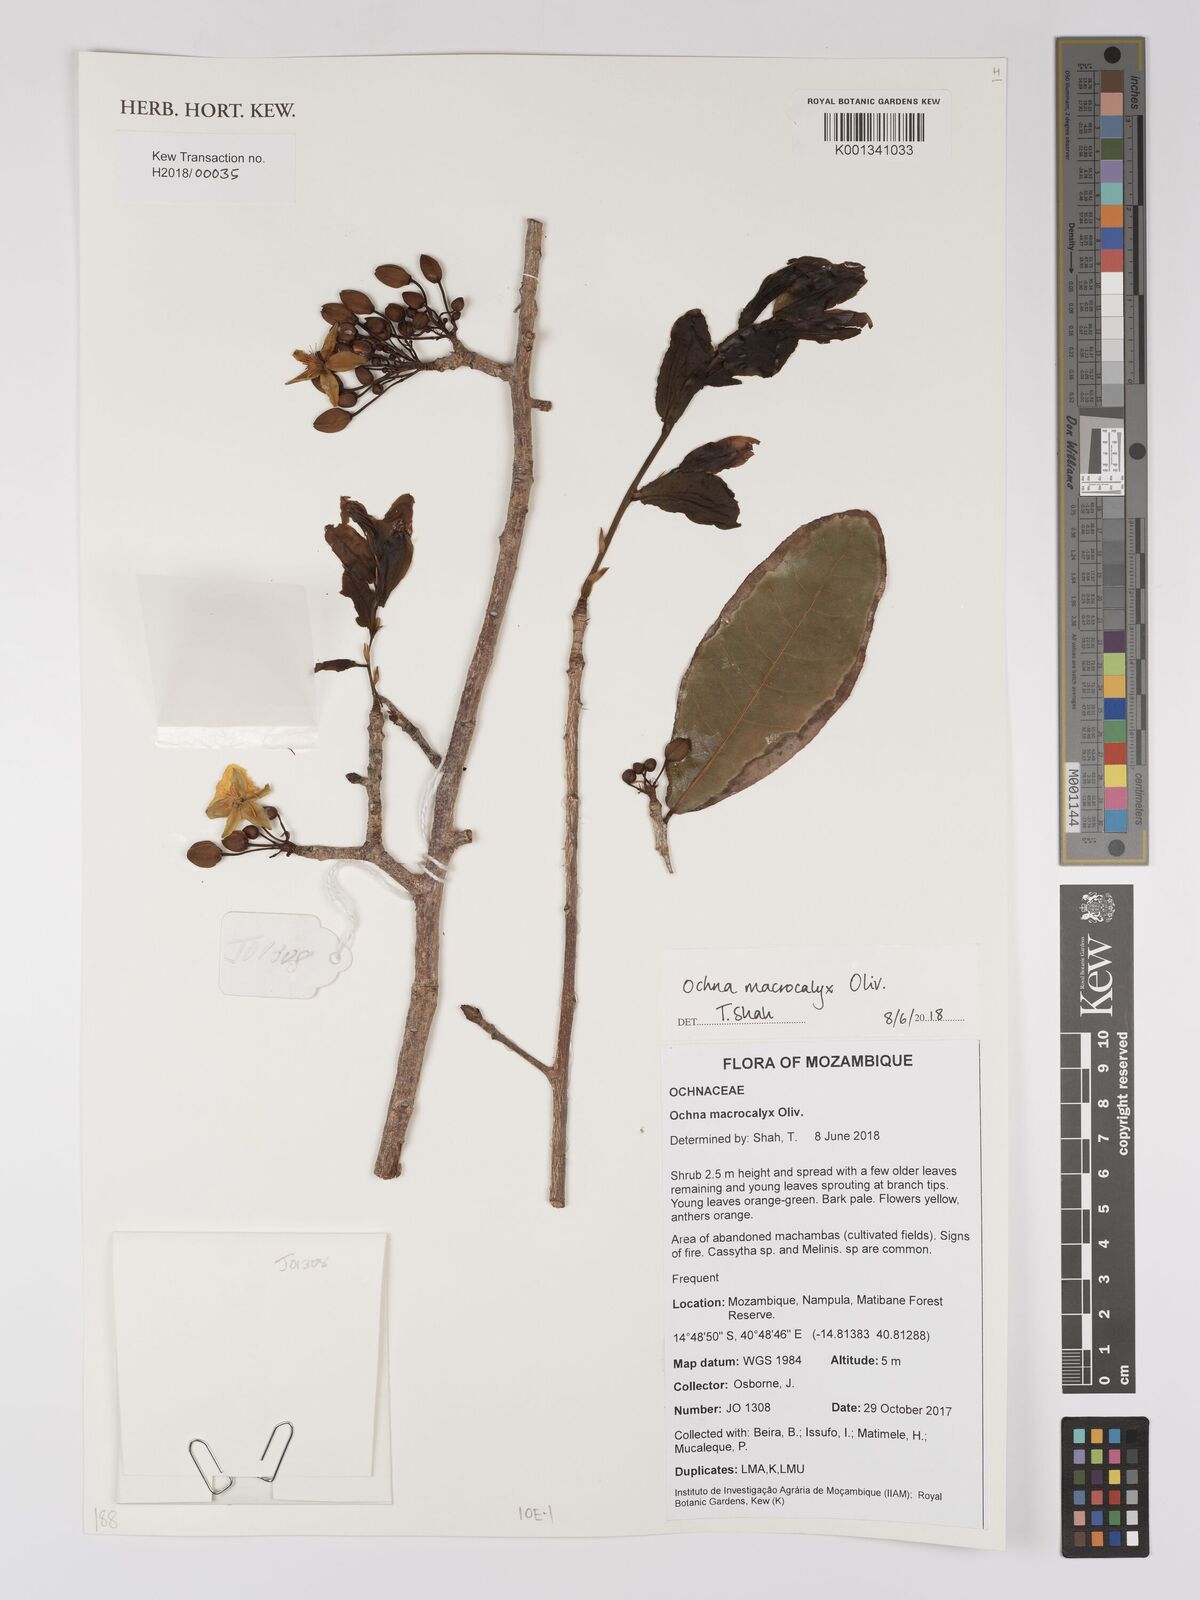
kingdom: Plantae
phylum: Tracheophyta
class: Magnoliopsida
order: Malpighiales
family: Ochnaceae
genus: Ochna
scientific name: Ochna macrocalyx
